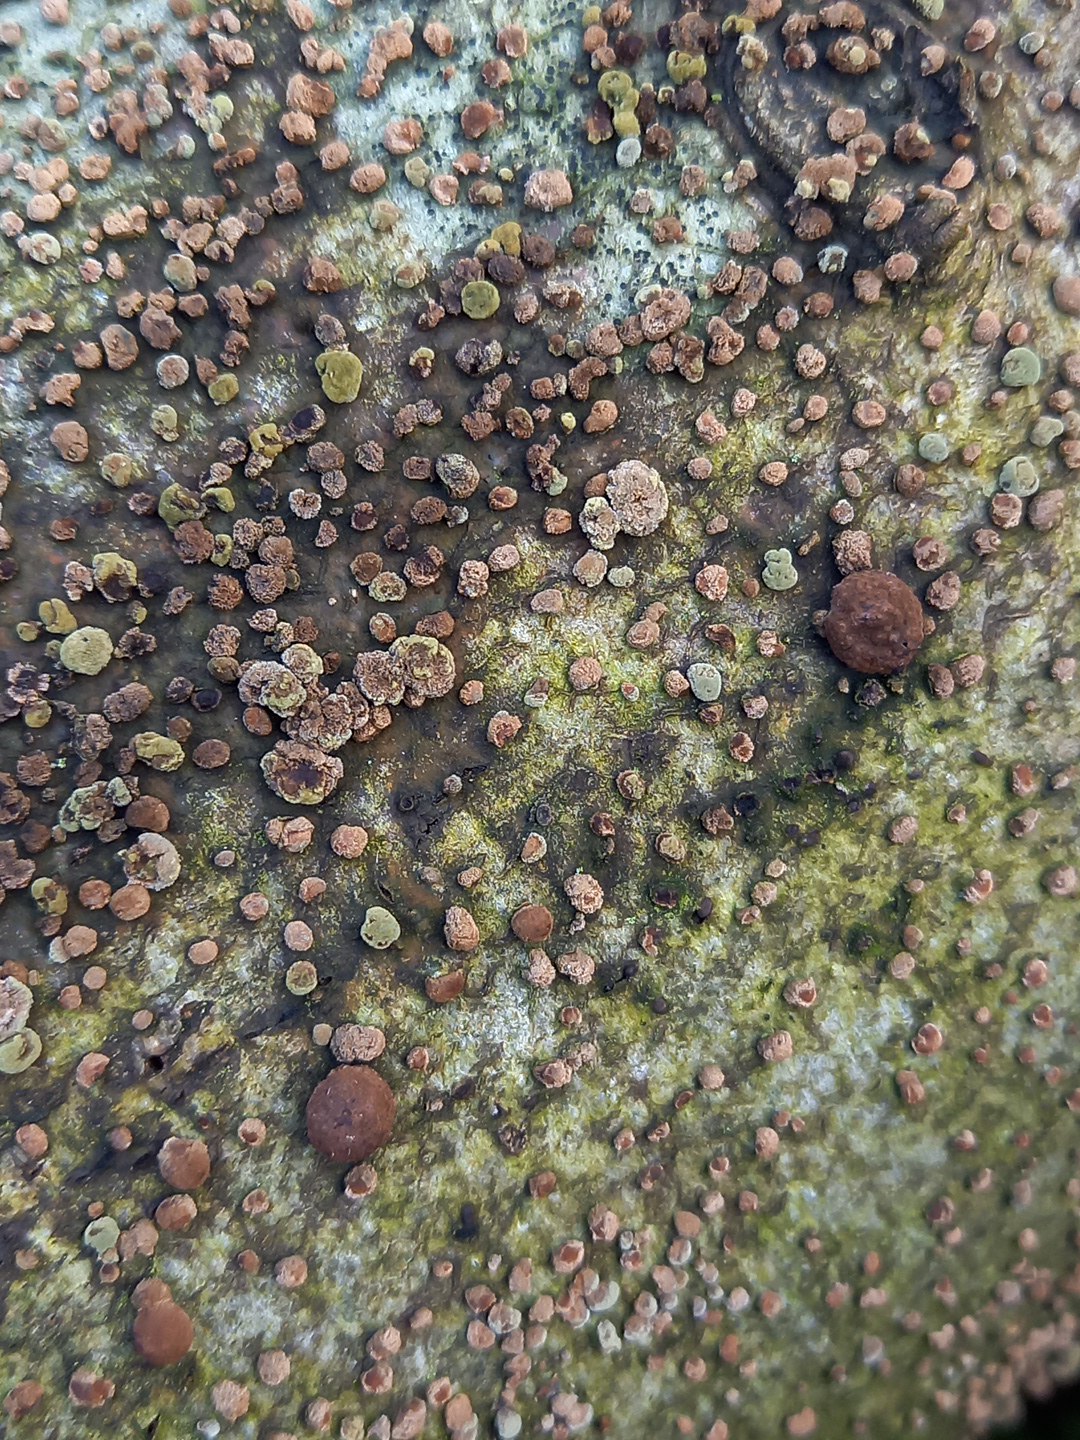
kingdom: Fungi
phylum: Ascomycota
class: Sordariomycetes
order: Xylariales
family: Hypoxylaceae
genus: Hypoxylon
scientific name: Hypoxylon fragiforme
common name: kuljordbær
